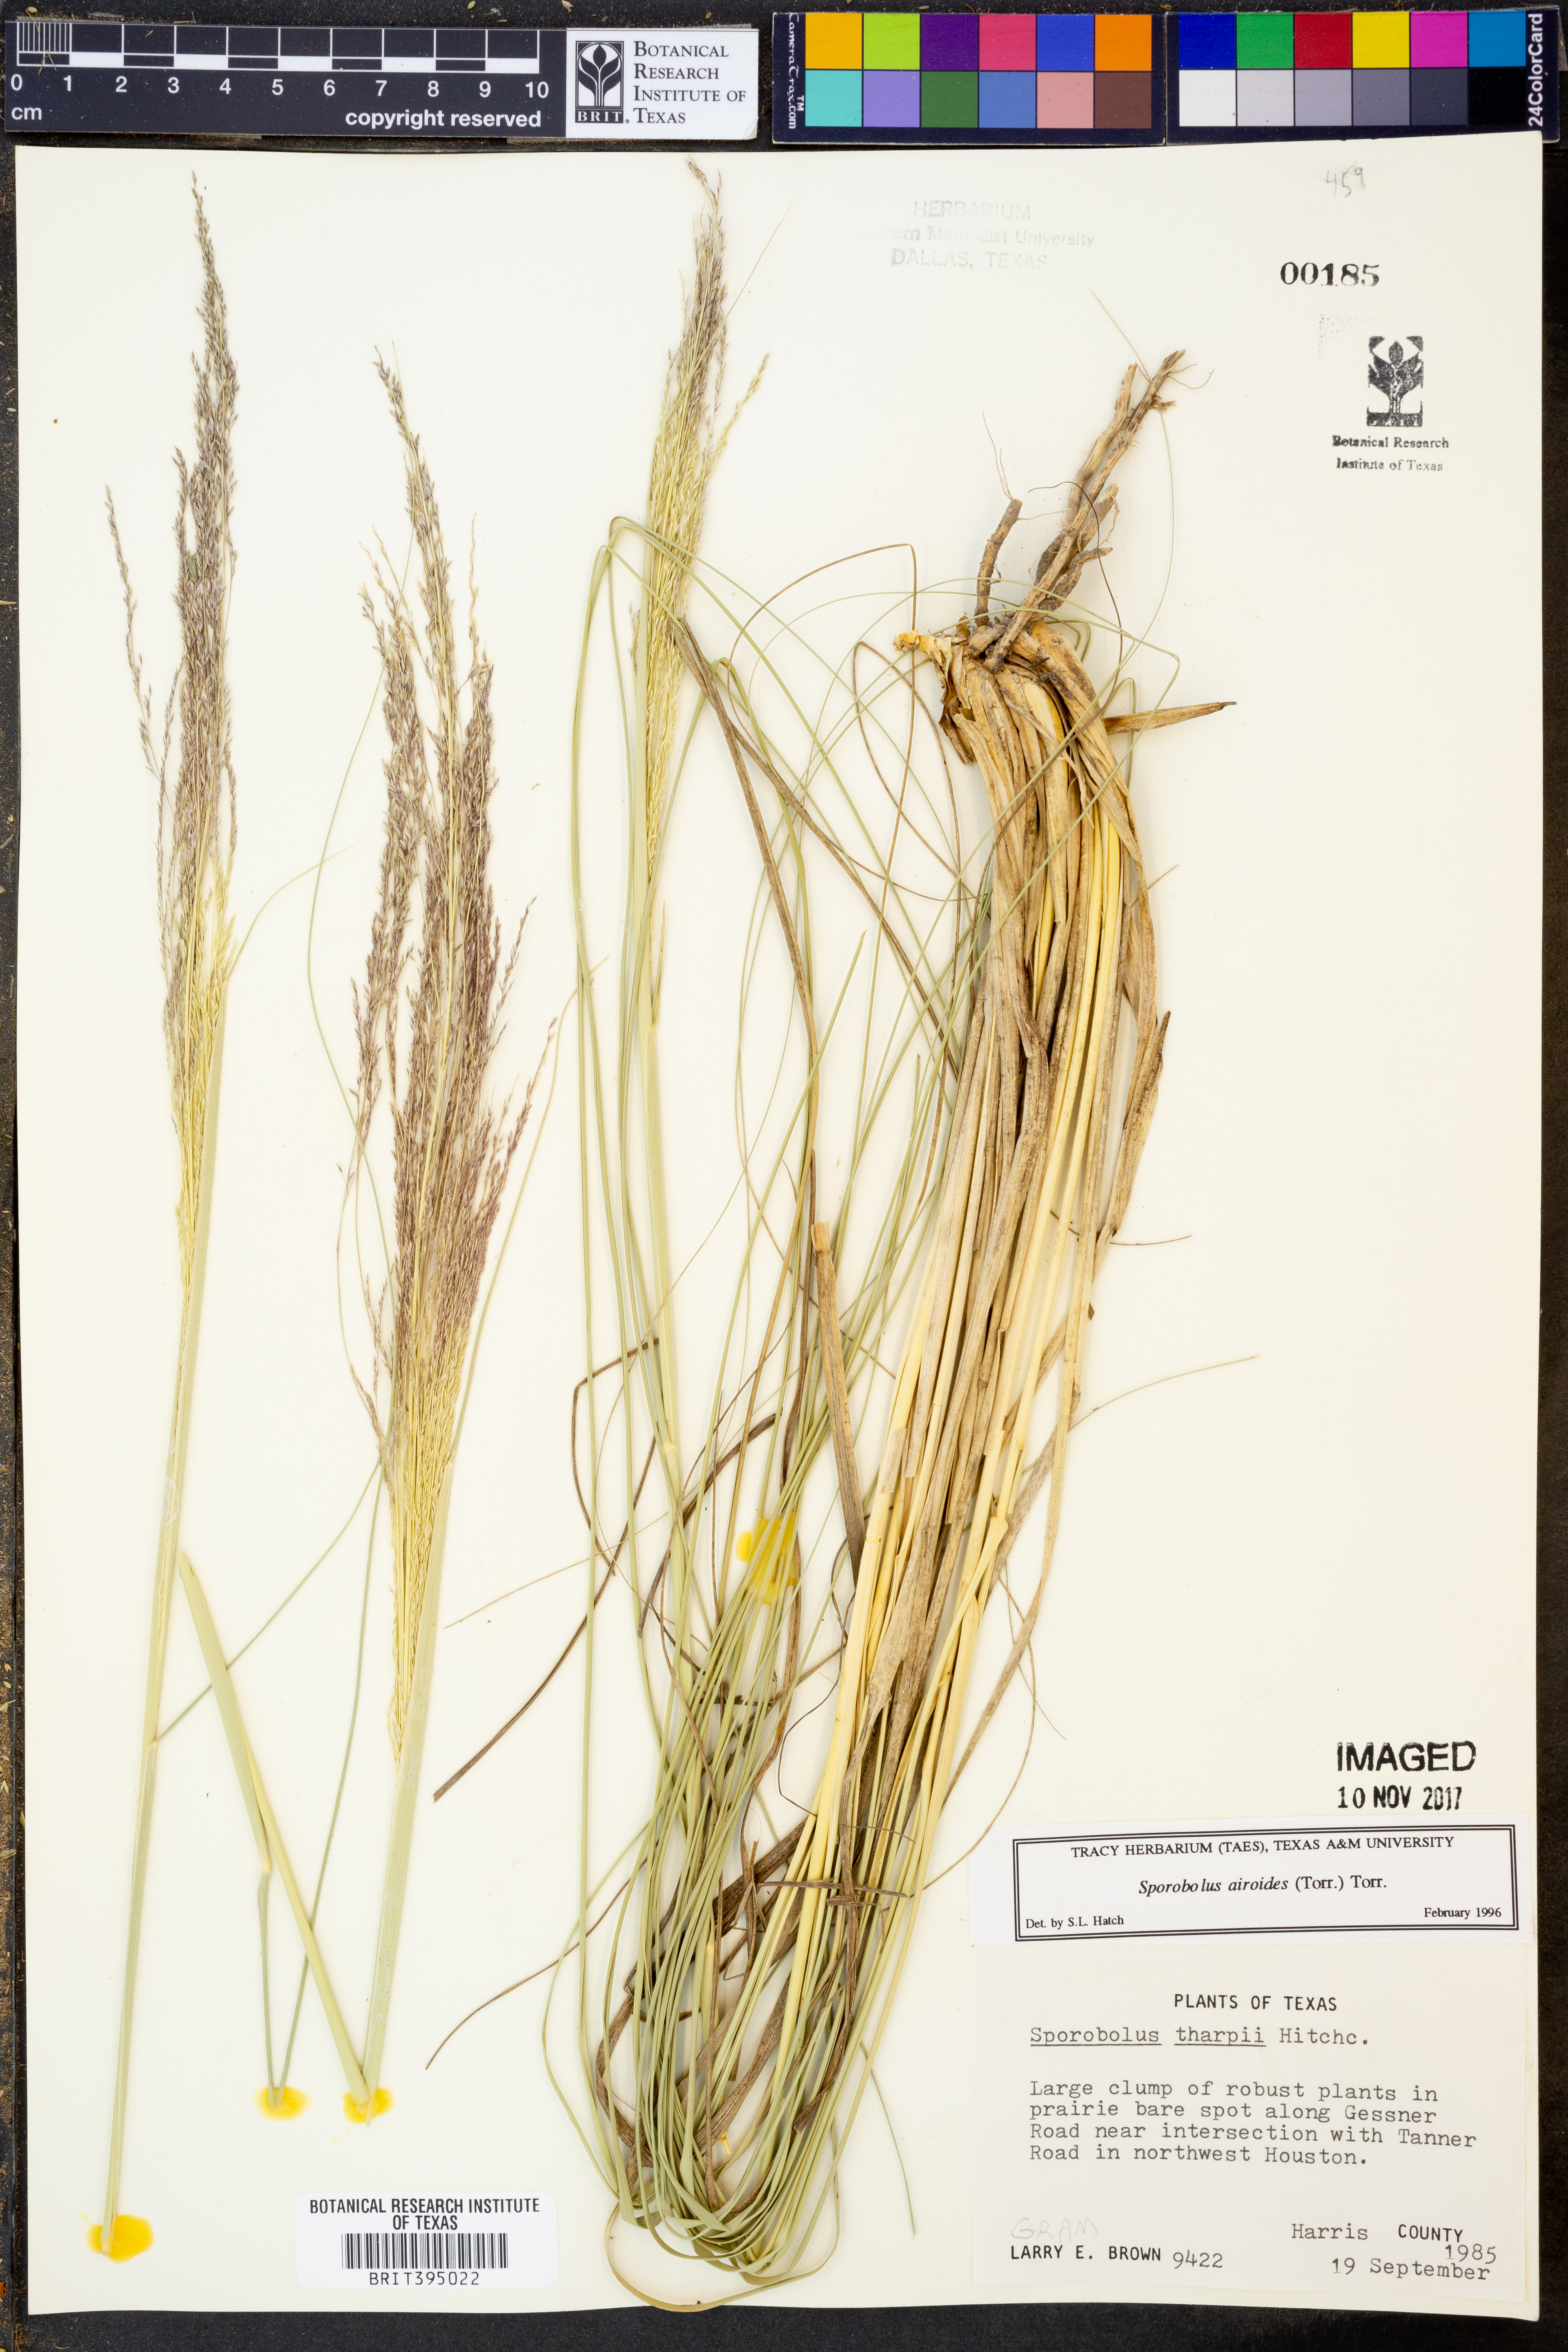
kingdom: Plantae
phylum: Tracheophyta
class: Liliopsida
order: Poales
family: Poaceae
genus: Sporobolus
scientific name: Sporobolus airoides
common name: Alkali sacaton
